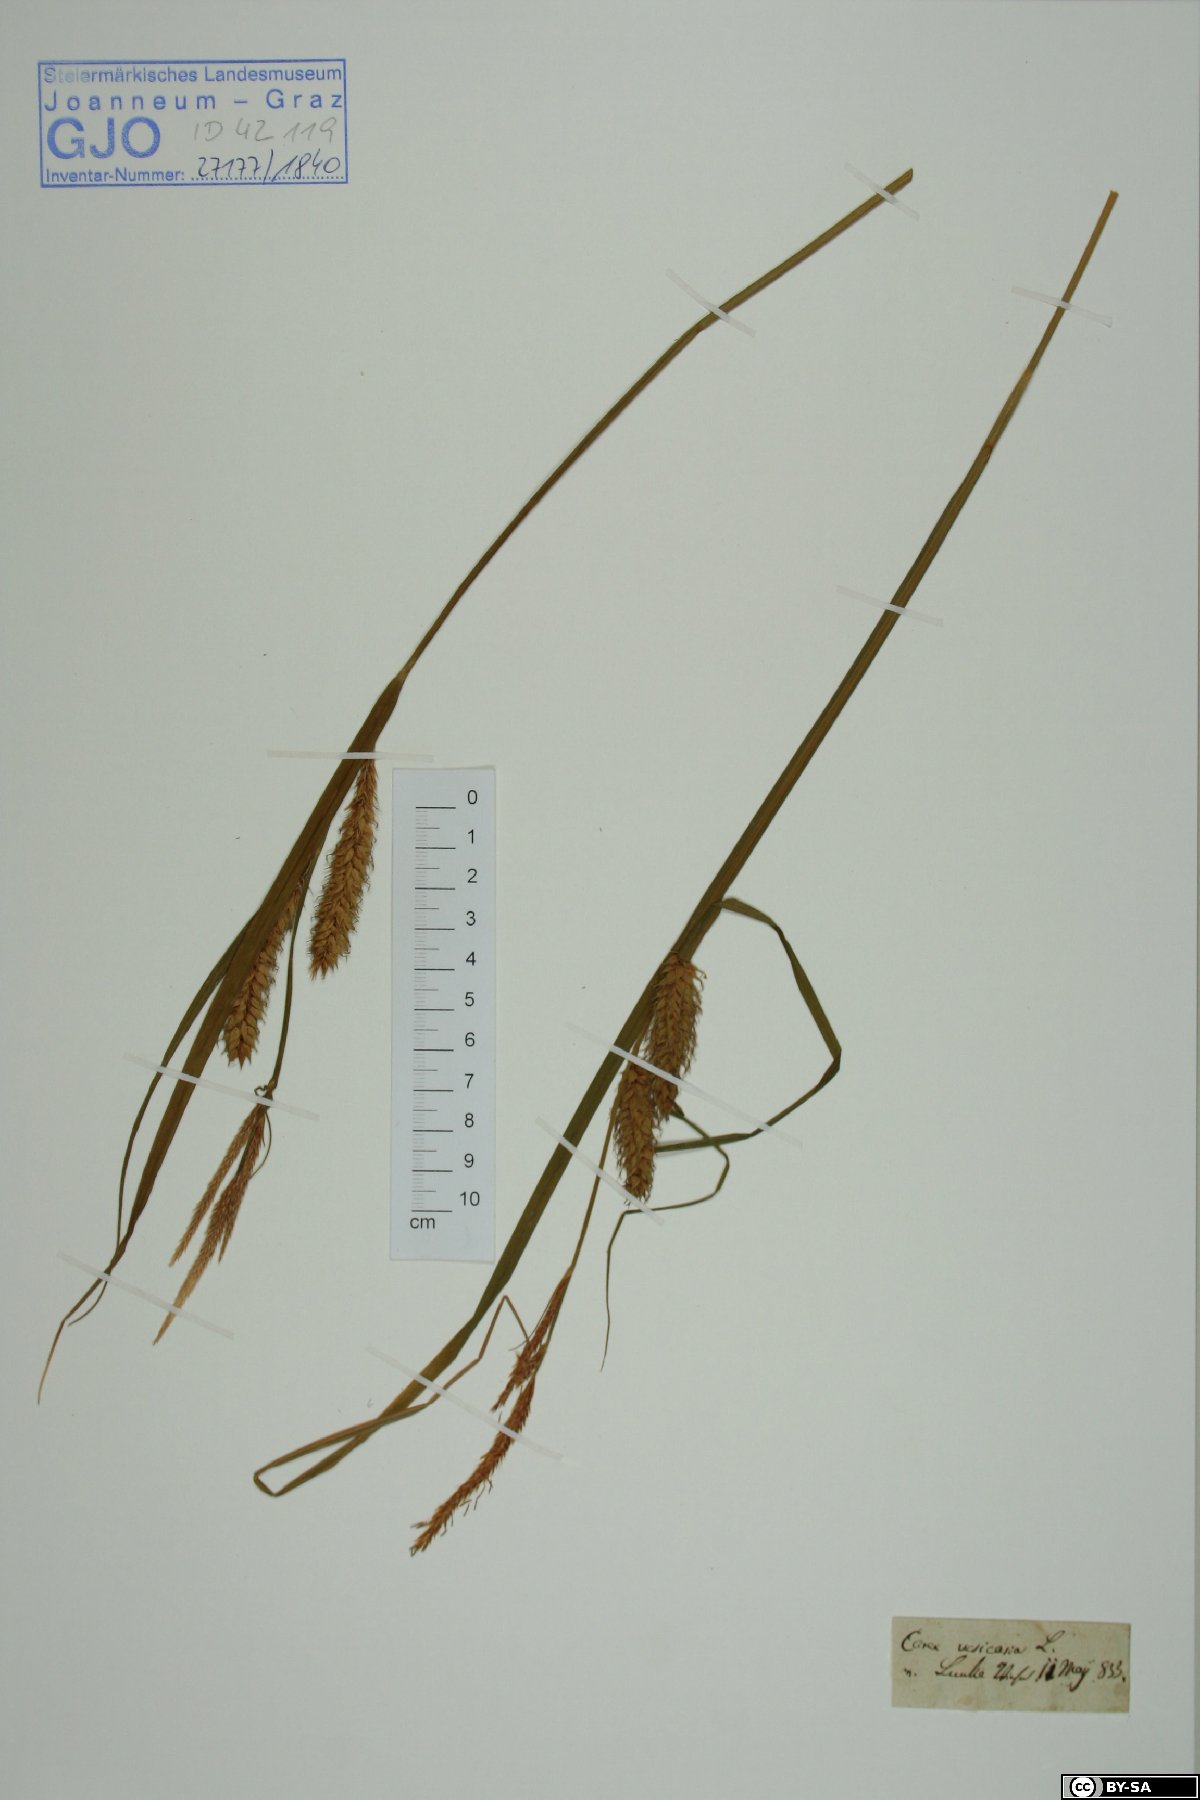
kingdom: Plantae
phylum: Tracheophyta
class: Liliopsida
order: Poales
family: Cyperaceae
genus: Carex
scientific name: Carex vesicaria
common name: Bladder-sedge
